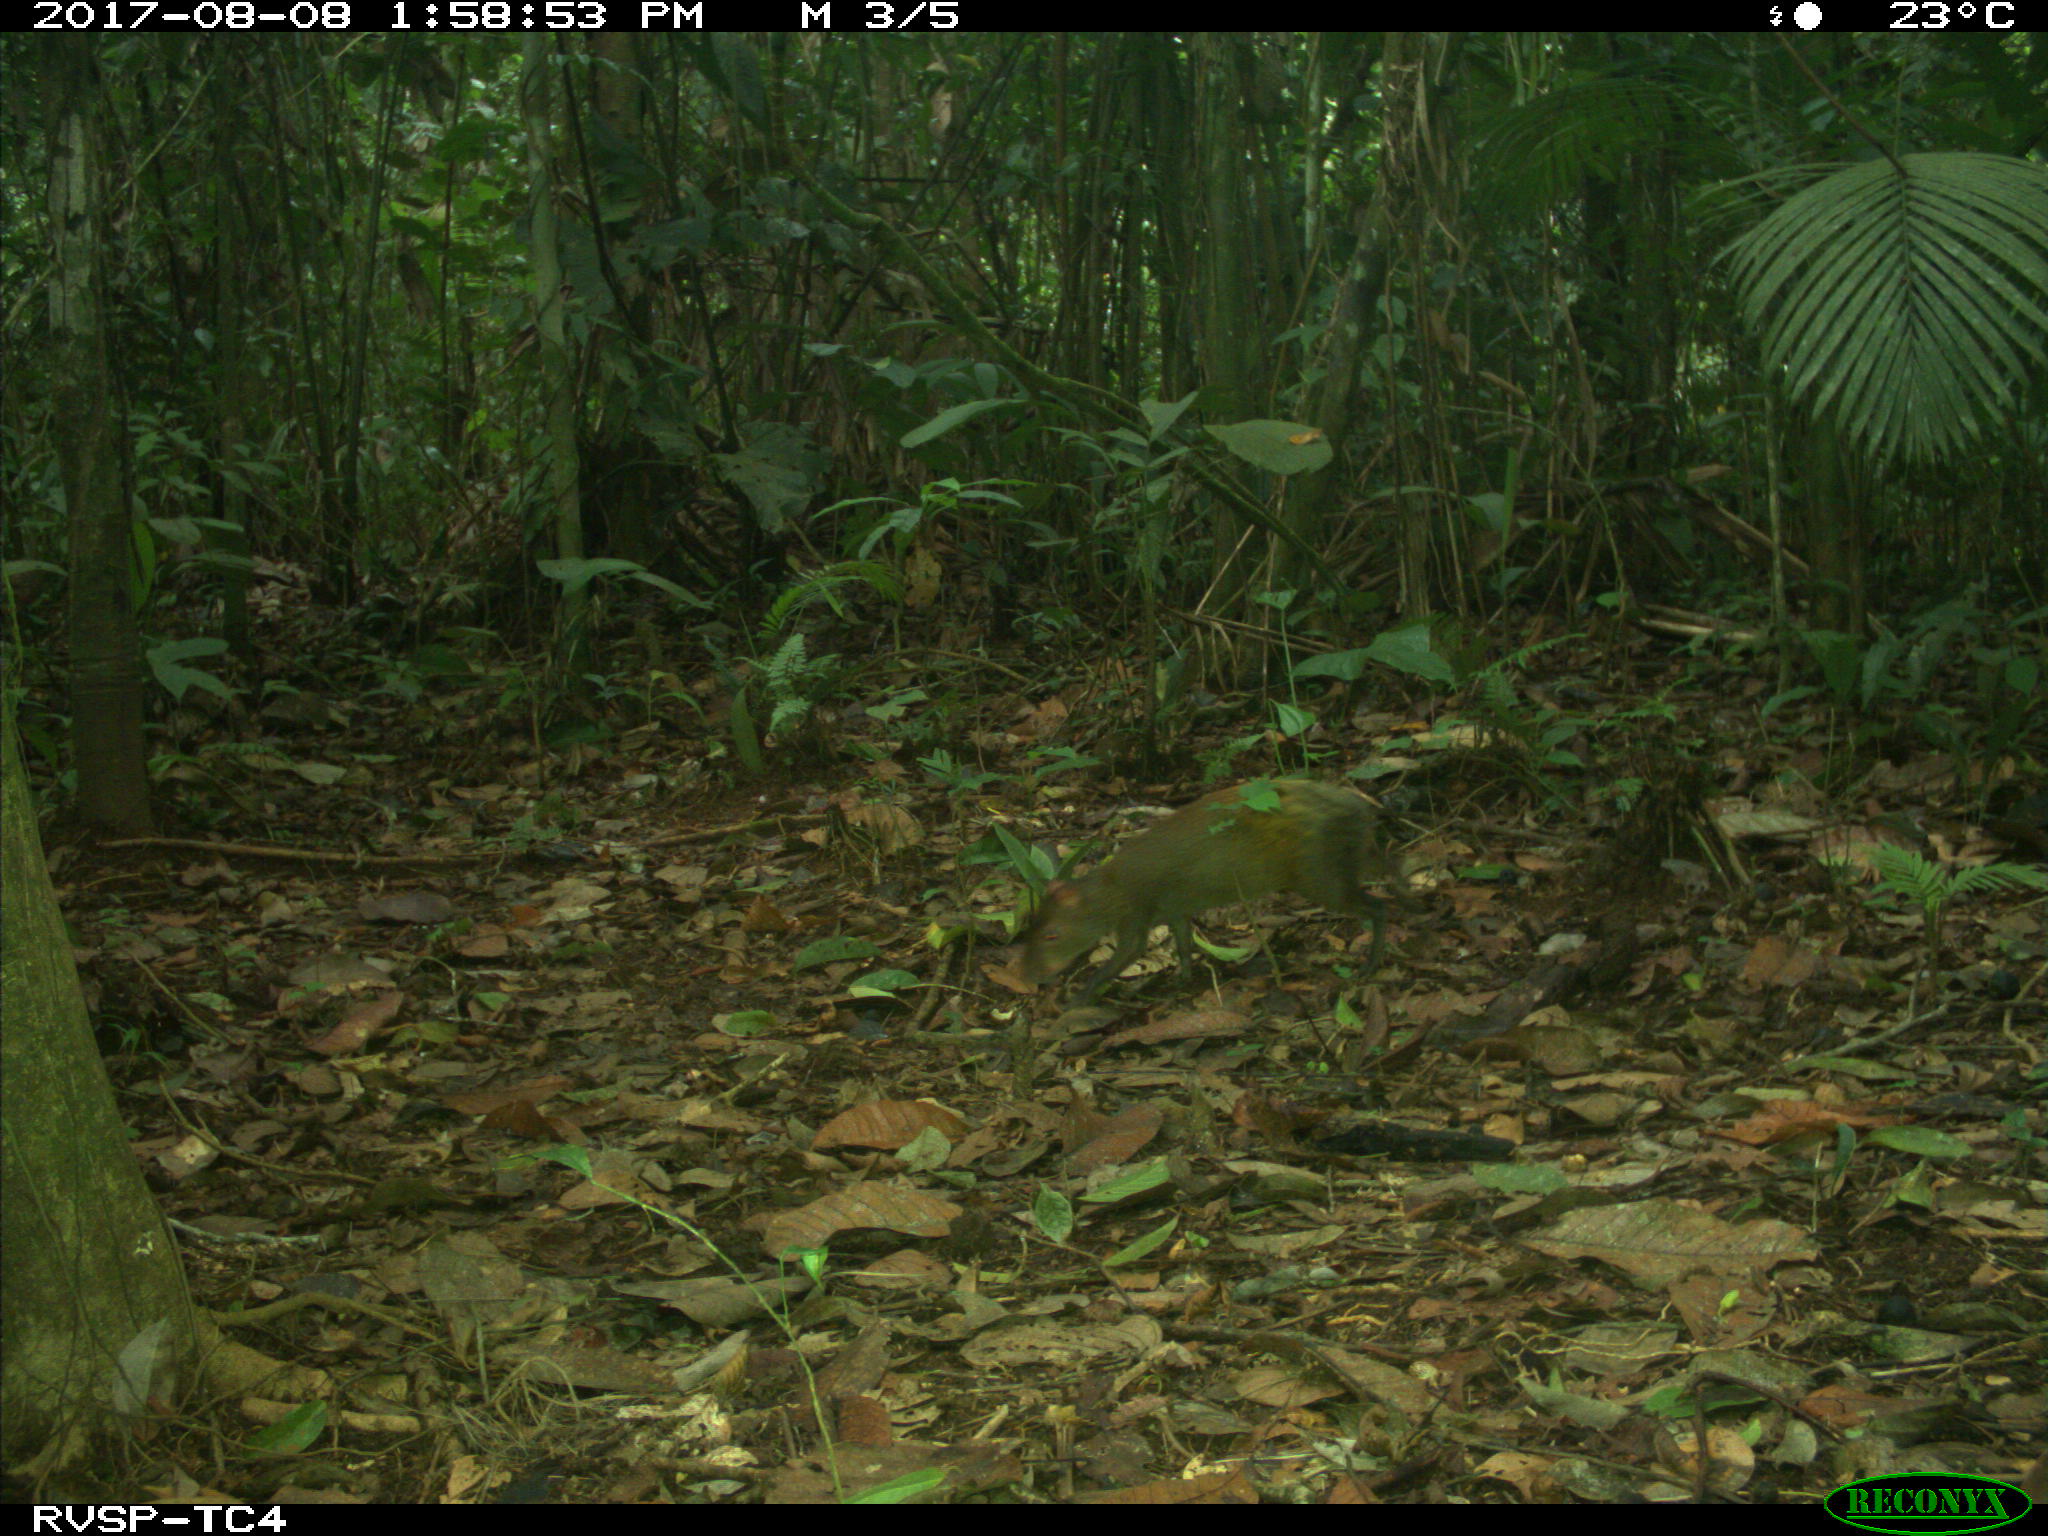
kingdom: Animalia
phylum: Chordata
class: Mammalia
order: Rodentia
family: Dasyproctidae
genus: Dasyprocta
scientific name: Dasyprocta punctata
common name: Central american agouti
